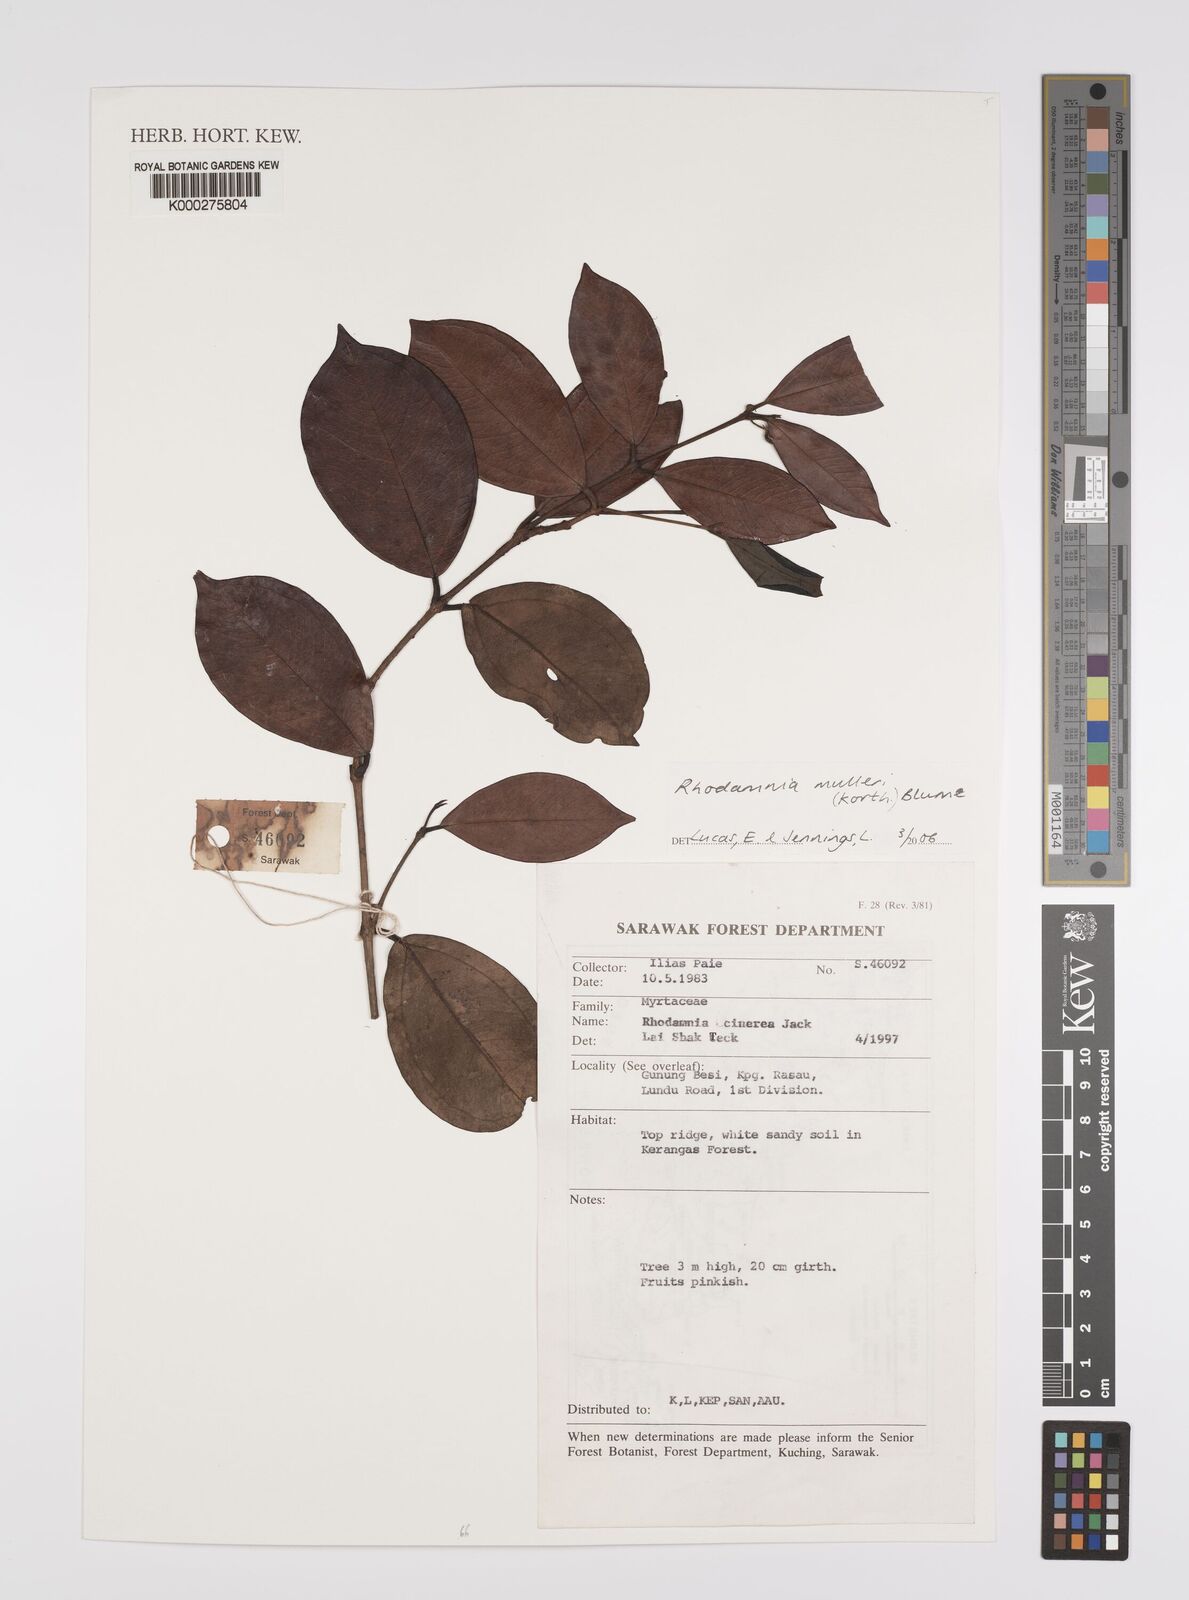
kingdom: Plantae
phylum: Tracheophyta
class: Magnoliopsida
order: Myrtales
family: Myrtaceae
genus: Rhodamnia
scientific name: Rhodamnia cinerea
